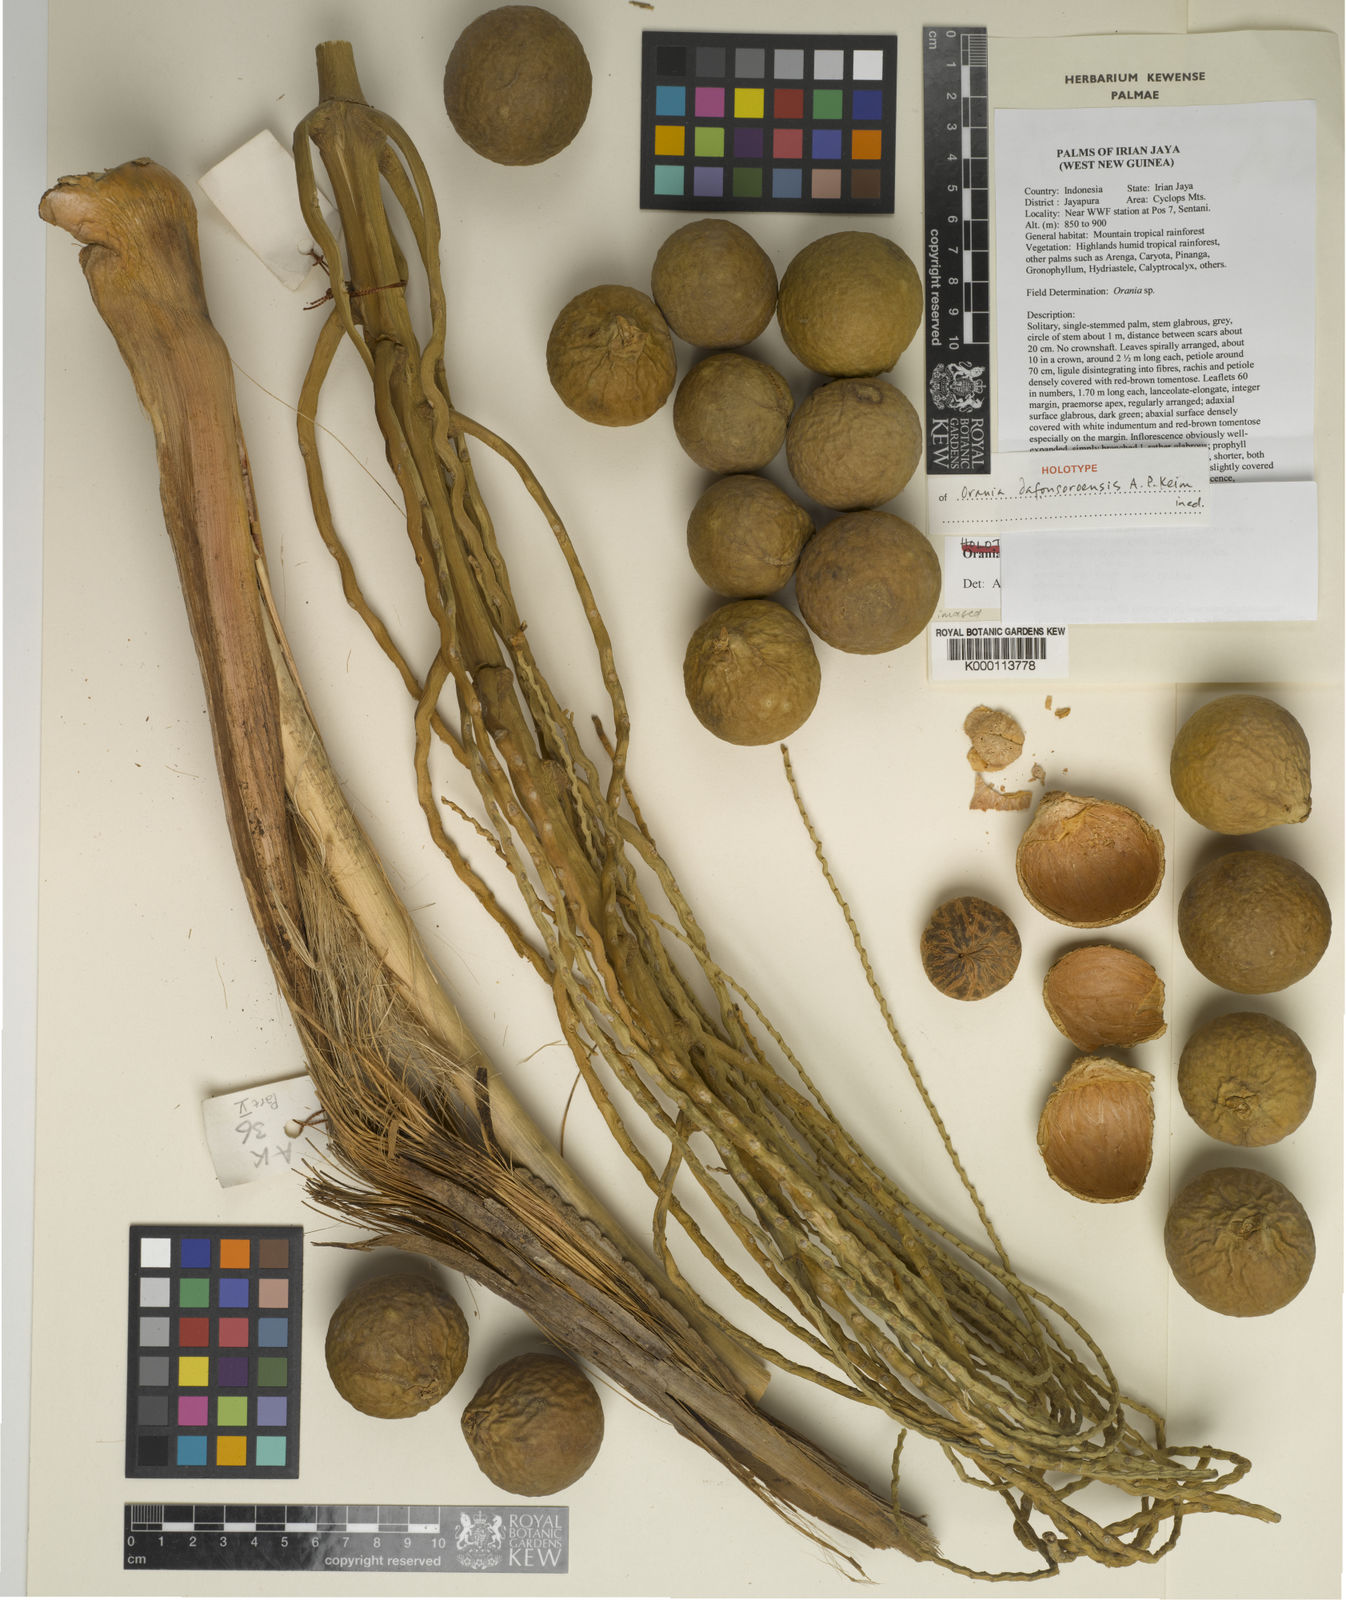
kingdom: Plantae
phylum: Tracheophyta
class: Liliopsida
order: Arecales
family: Arecaceae
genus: Orania
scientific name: Orania dafonsoroensis
